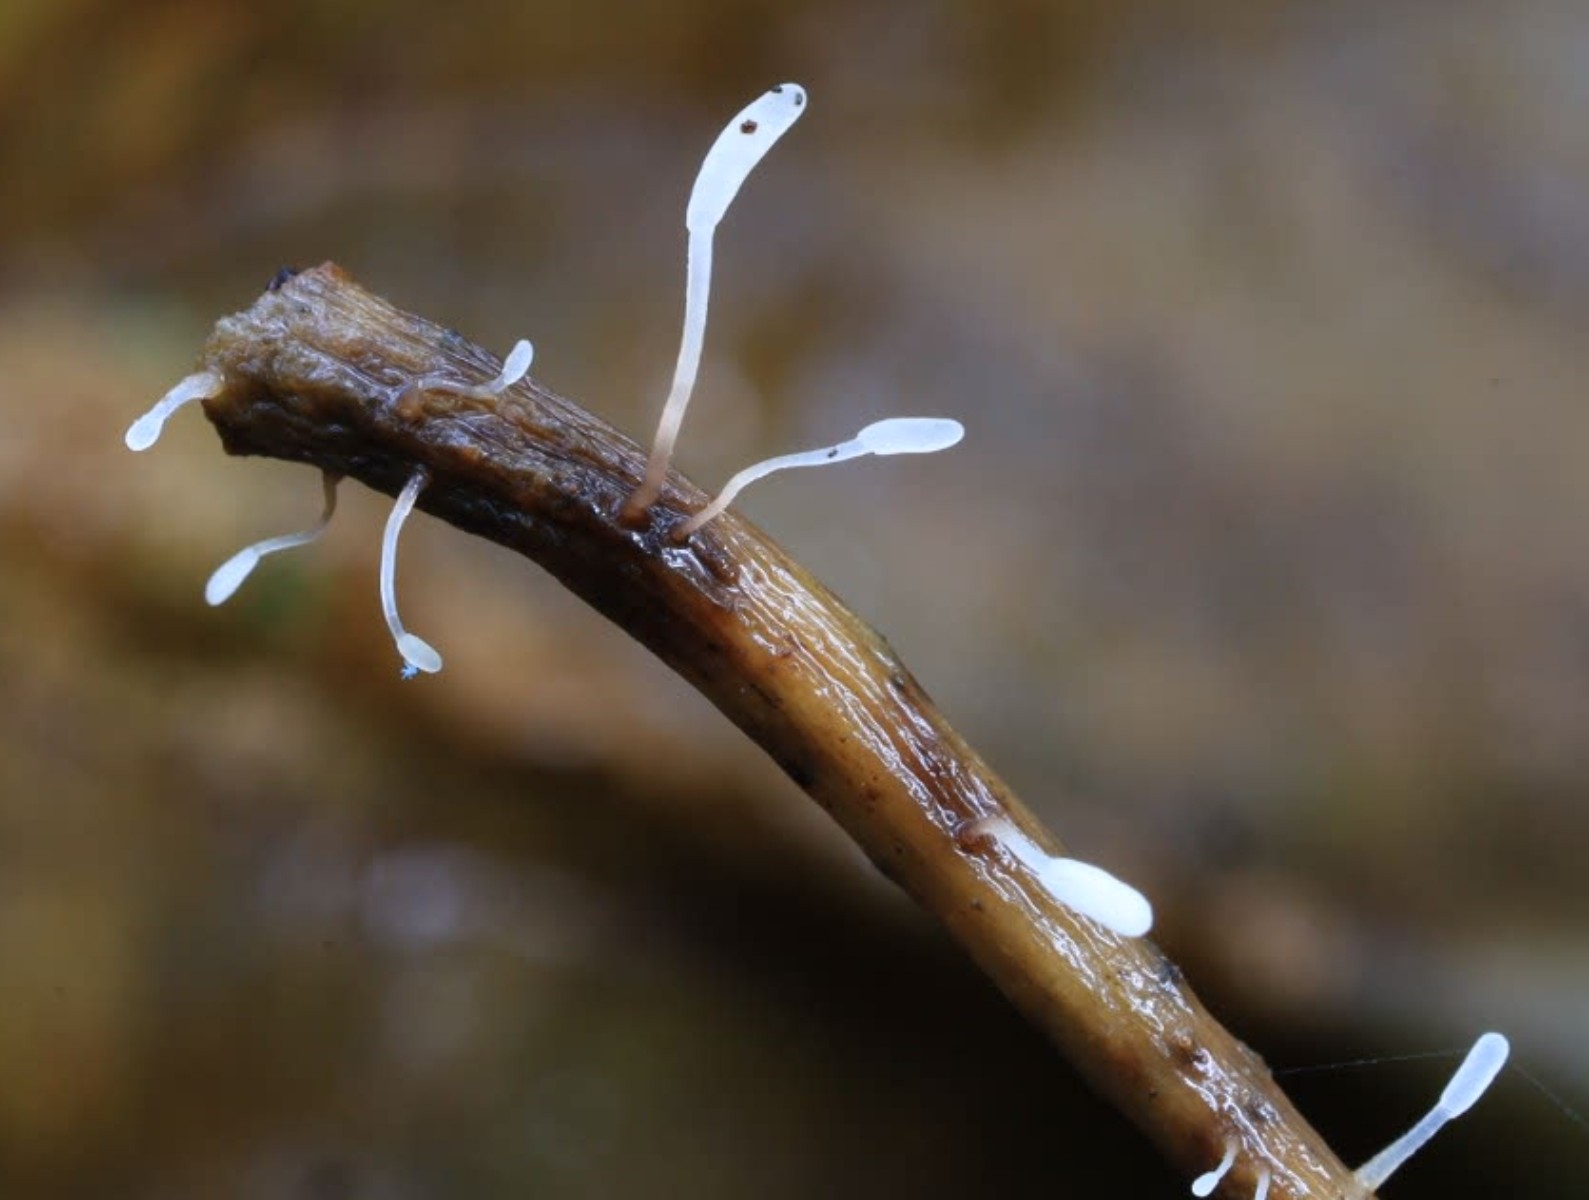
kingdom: Fungi
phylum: Basidiomycota
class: Agaricomycetes
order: Agaricales
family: Typhulaceae
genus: Typhula
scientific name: Typhula setipes
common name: liden trådkølle
